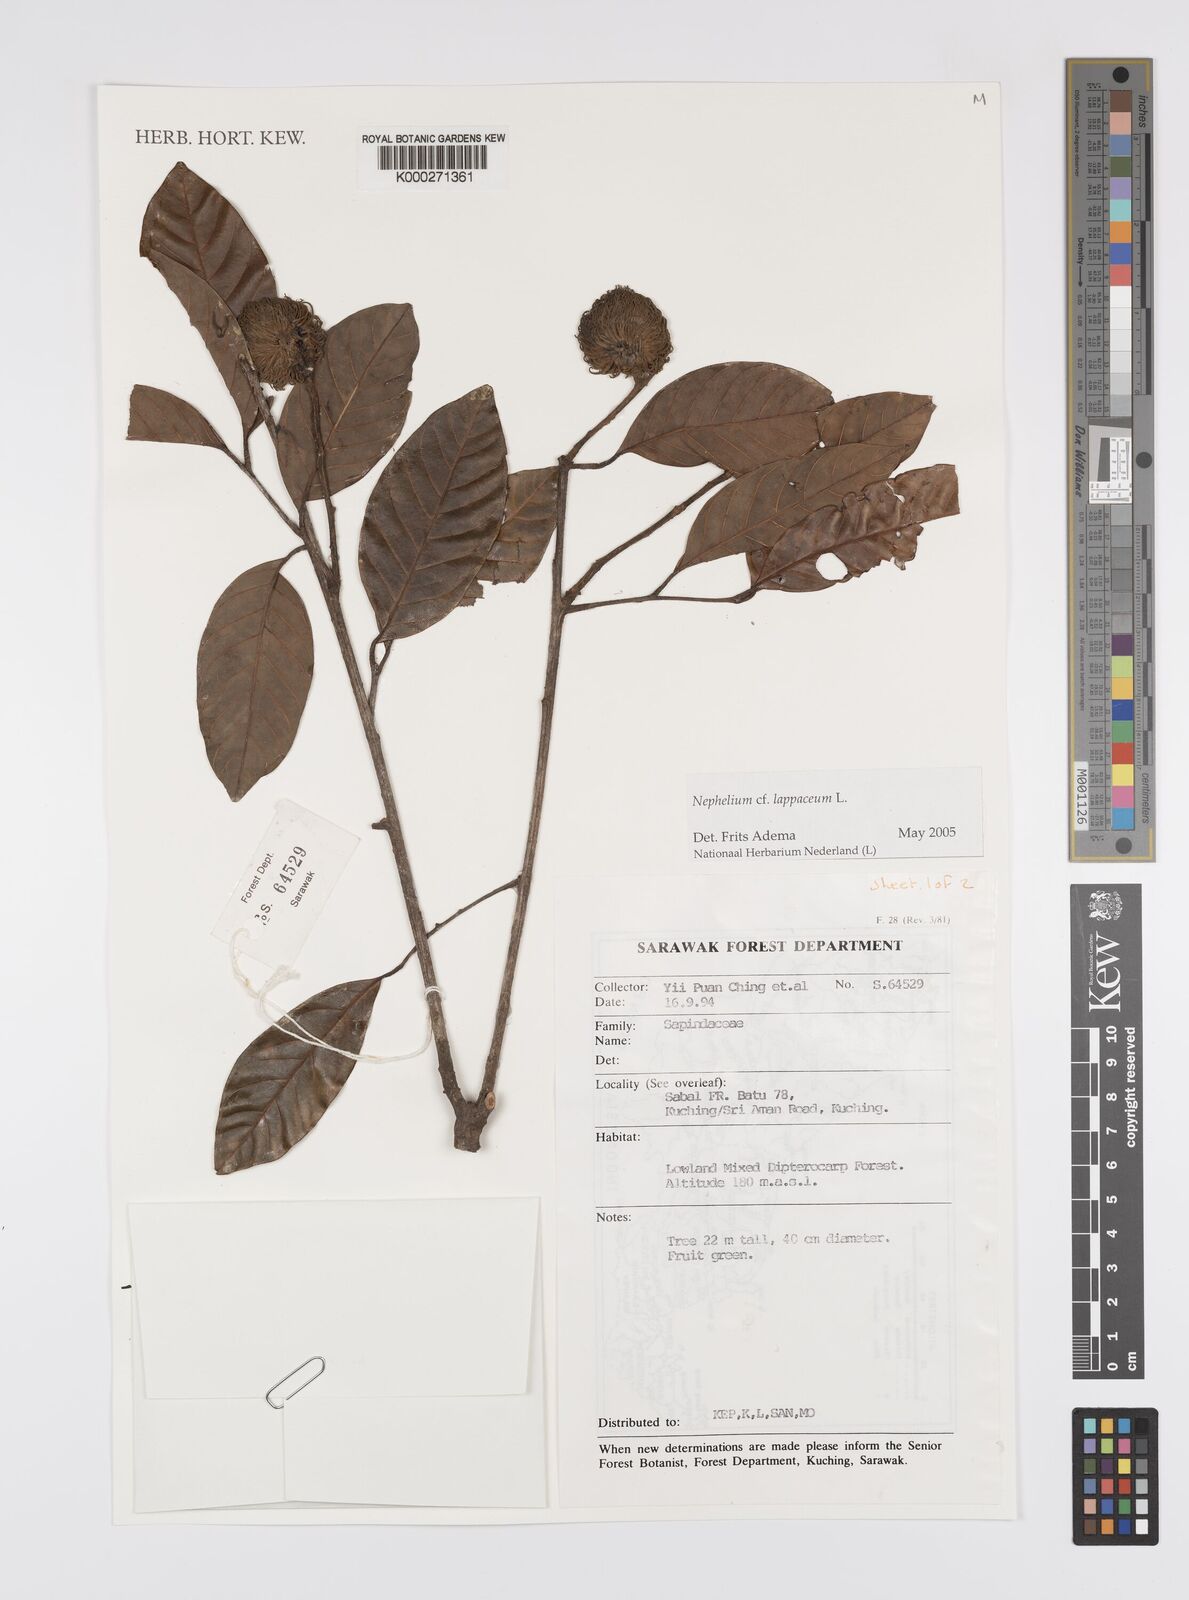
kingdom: Plantae
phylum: Tracheophyta
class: Magnoliopsida
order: Sapindales
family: Sapindaceae
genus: Nephelium
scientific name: Nephelium lappaceum
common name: Rambutan
